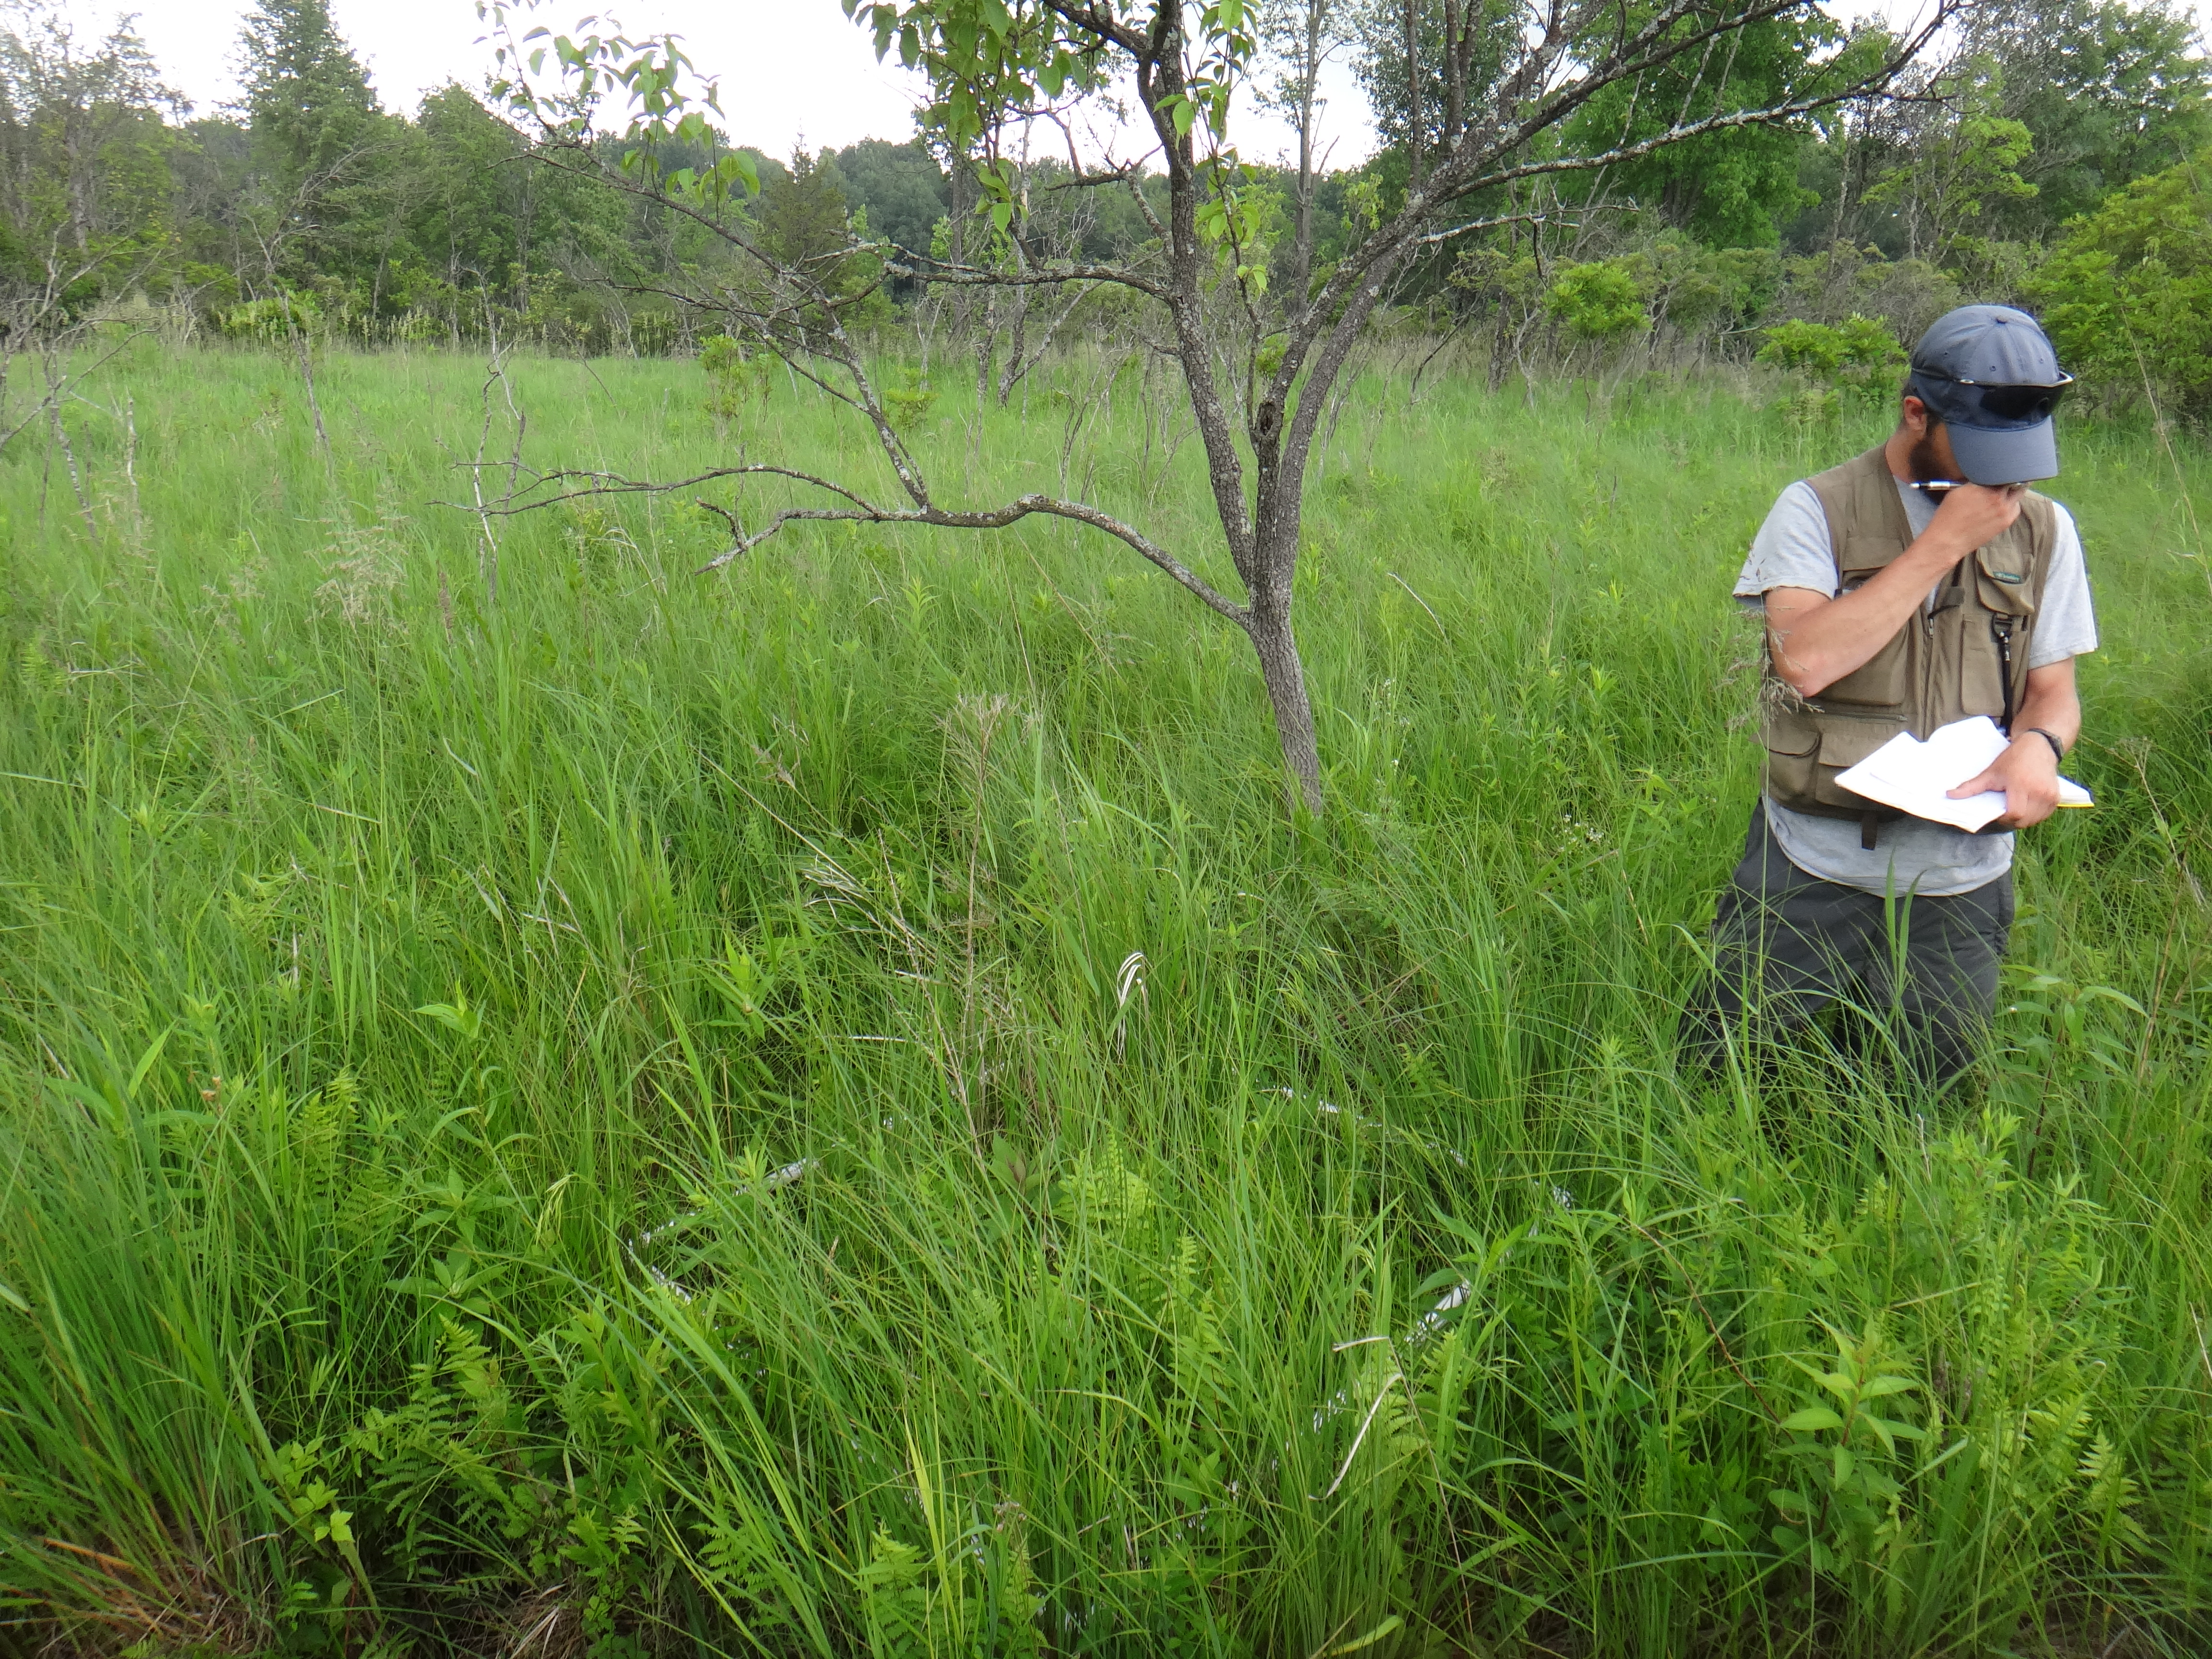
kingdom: Plantae
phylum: Tracheophyta
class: Magnoliopsida
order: Fabales
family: Fabaceae
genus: Lathyrus
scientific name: Lathyrus palustris
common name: Marsh pea
